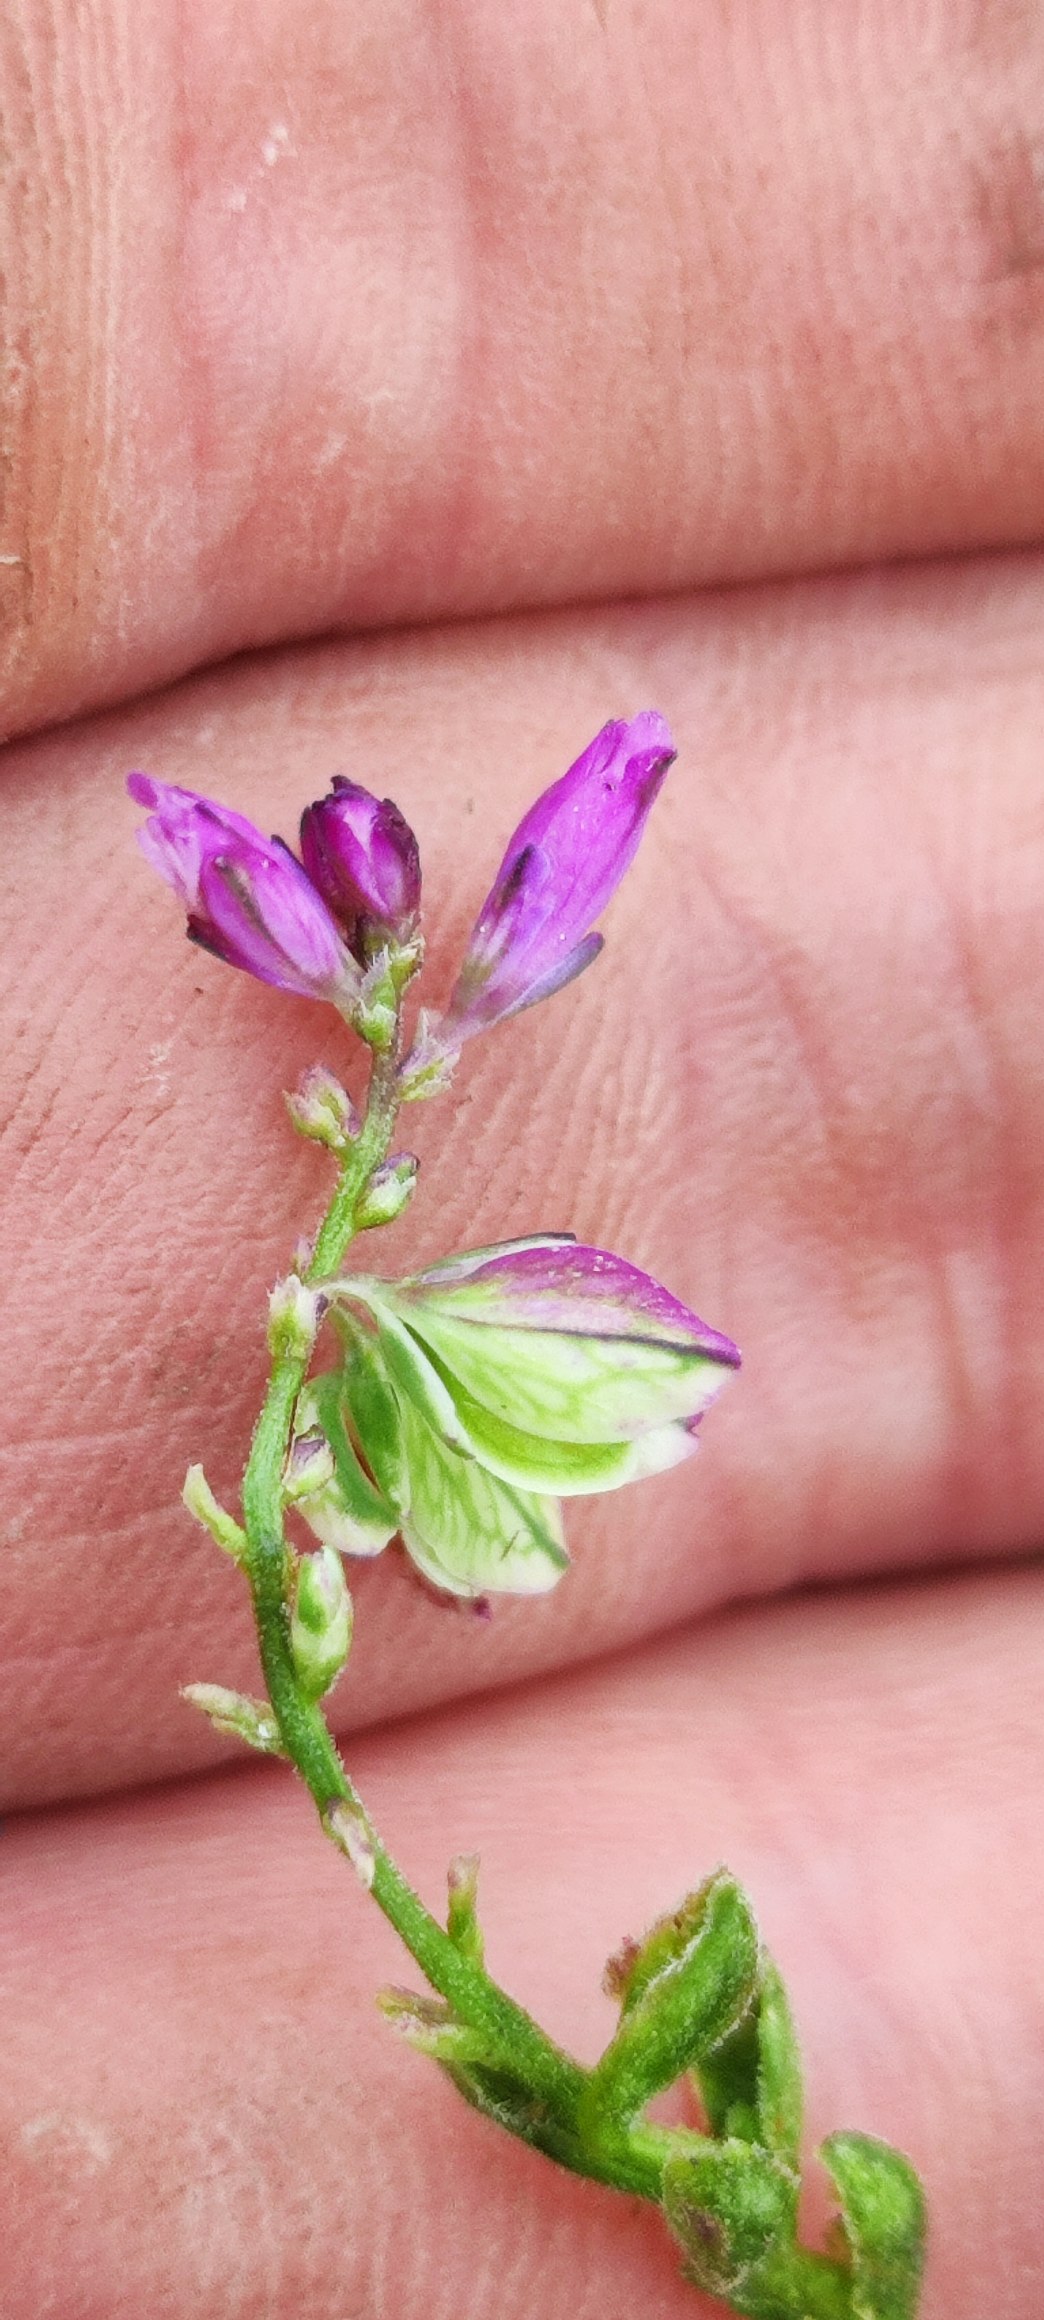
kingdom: Plantae
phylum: Tracheophyta
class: Magnoliopsida
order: Fabales
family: Polygalaceae
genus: Polygala
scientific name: Polygala vulgaris
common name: Almindelig mælkeurt
